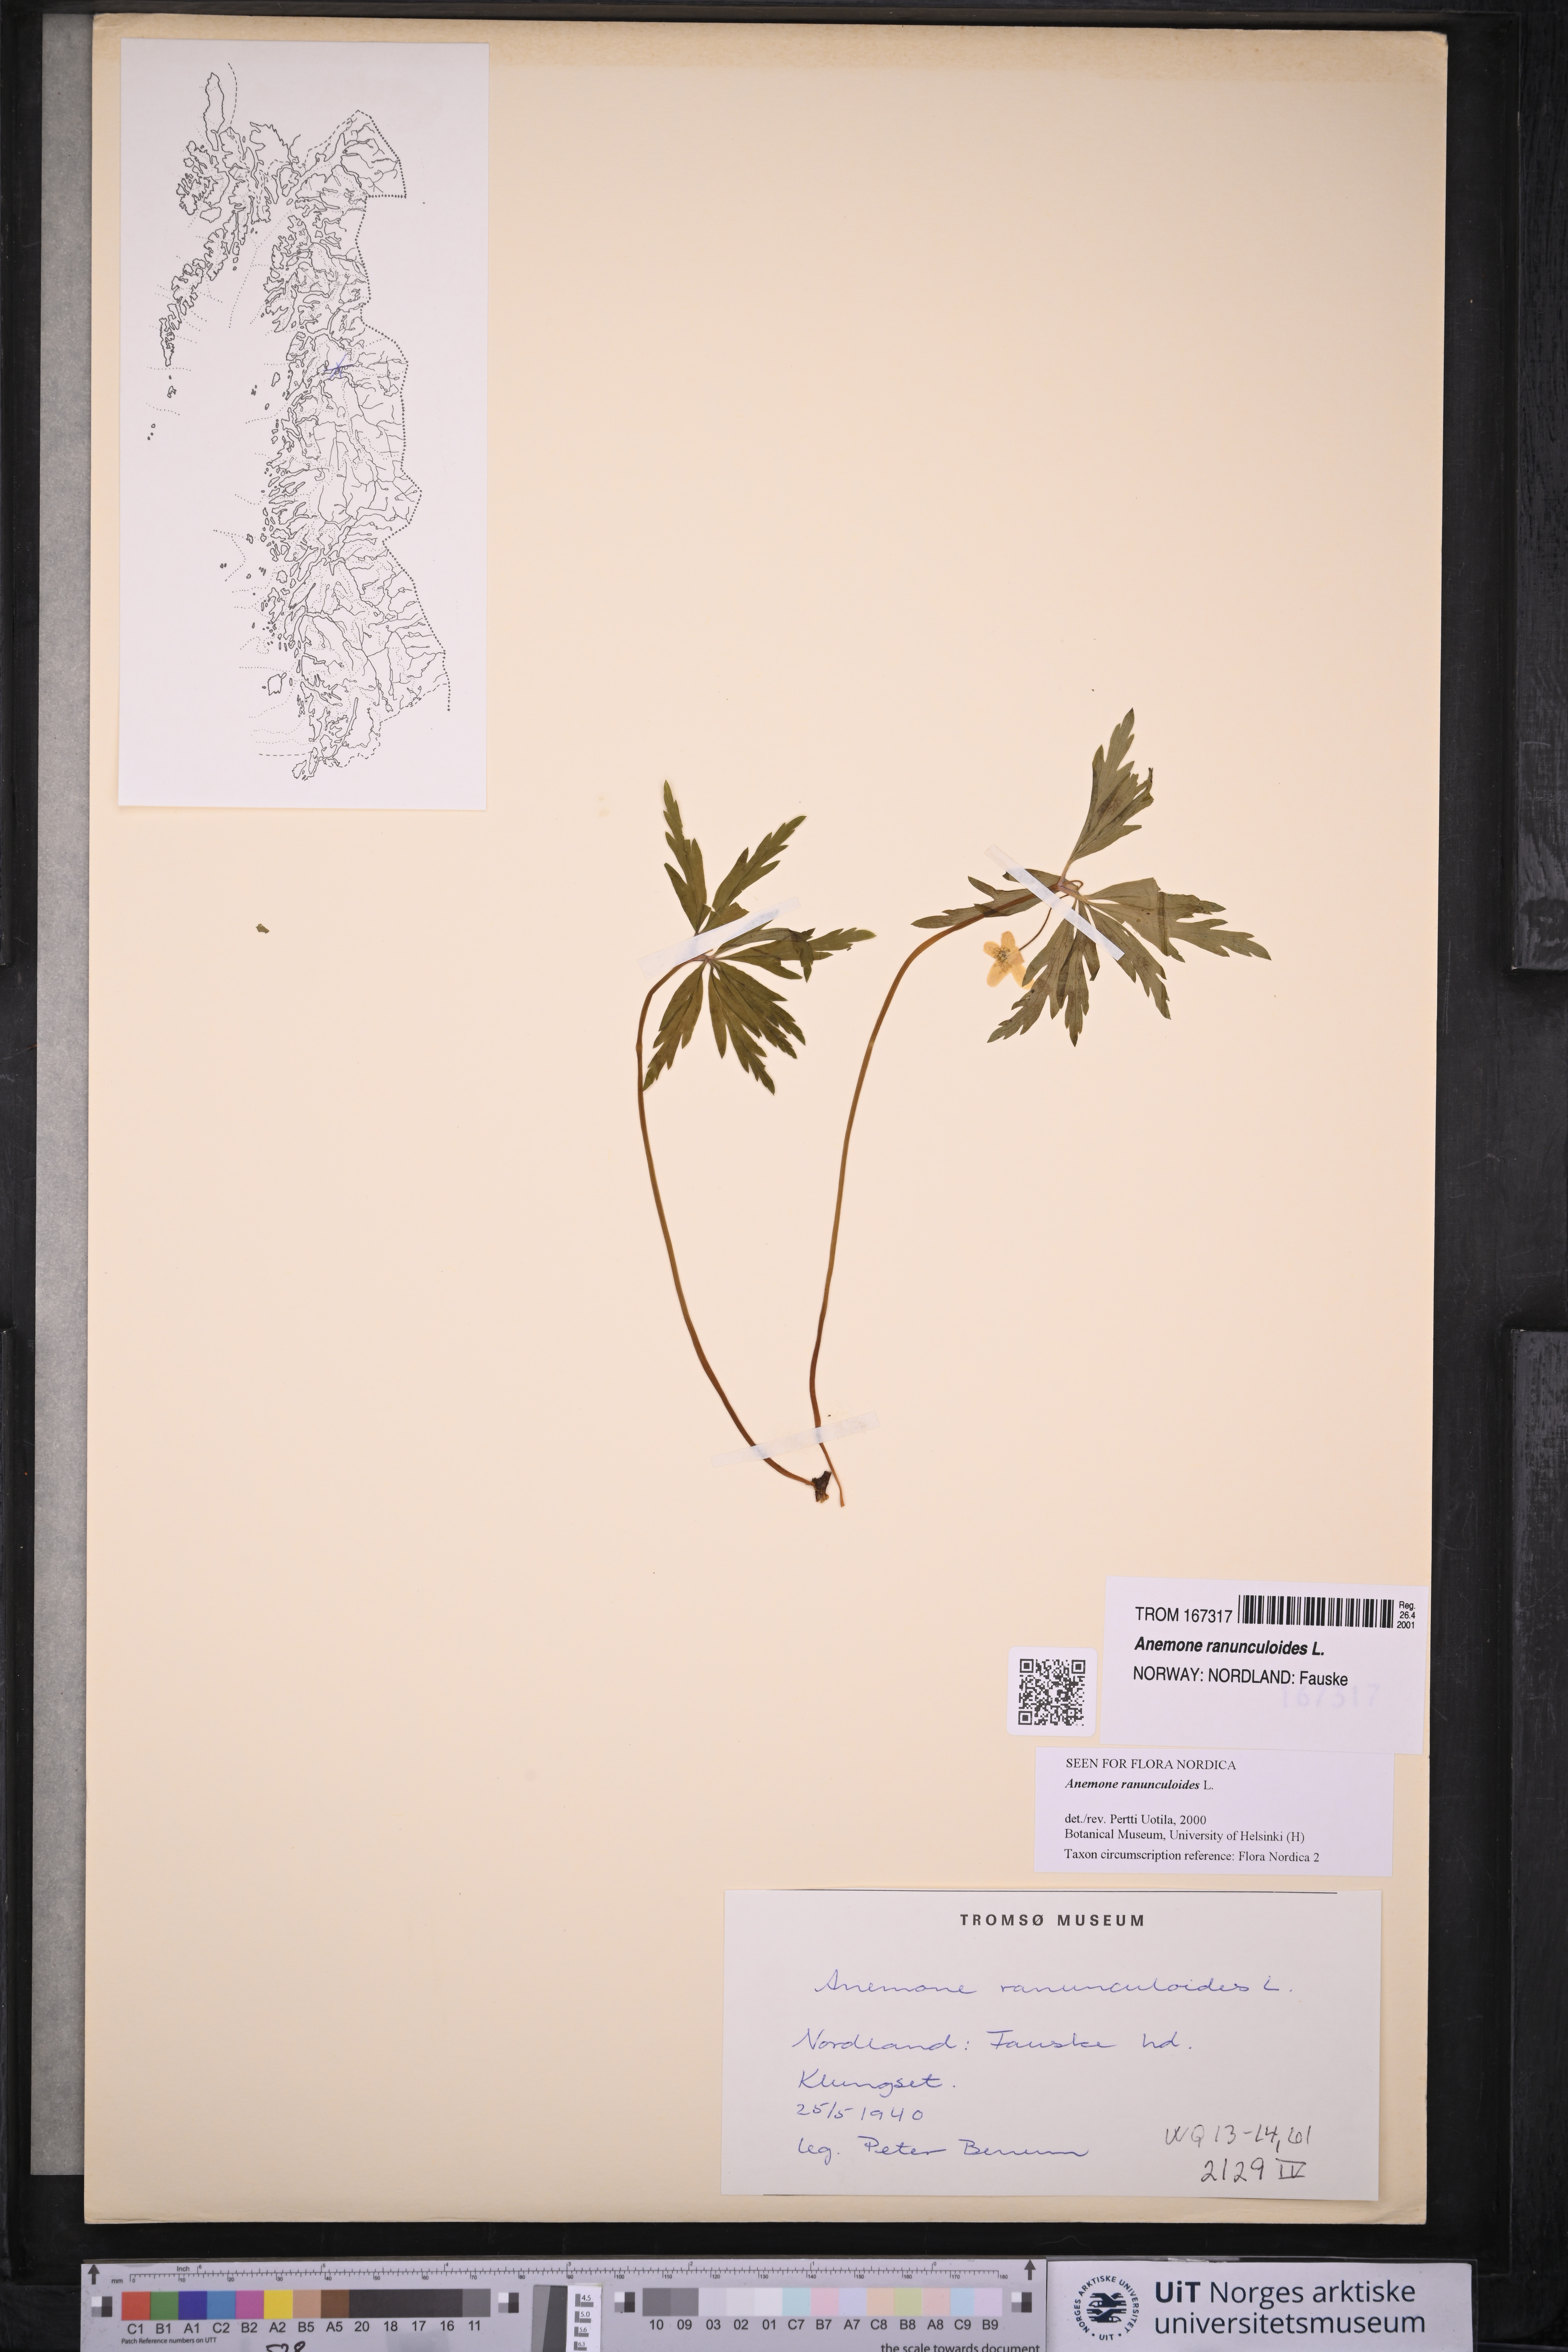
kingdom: Plantae
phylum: Tracheophyta
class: Magnoliopsida
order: Ranunculales
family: Ranunculaceae
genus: Anemone
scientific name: Anemone ranunculoides
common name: Yellow anemone
